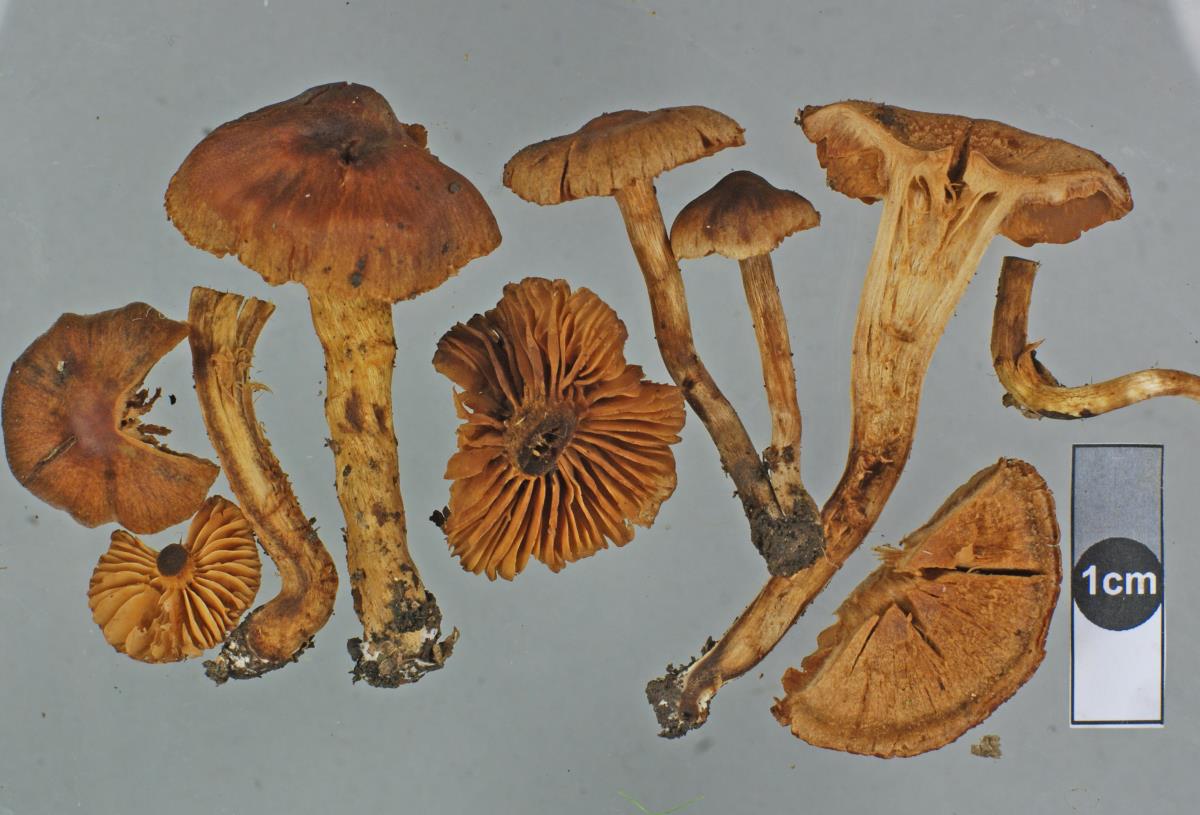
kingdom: Fungi
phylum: Basidiomycota
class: Agaricomycetes
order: Agaricales
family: Cortinariaceae
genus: Cortinarius
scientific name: Cortinarius desertorum
